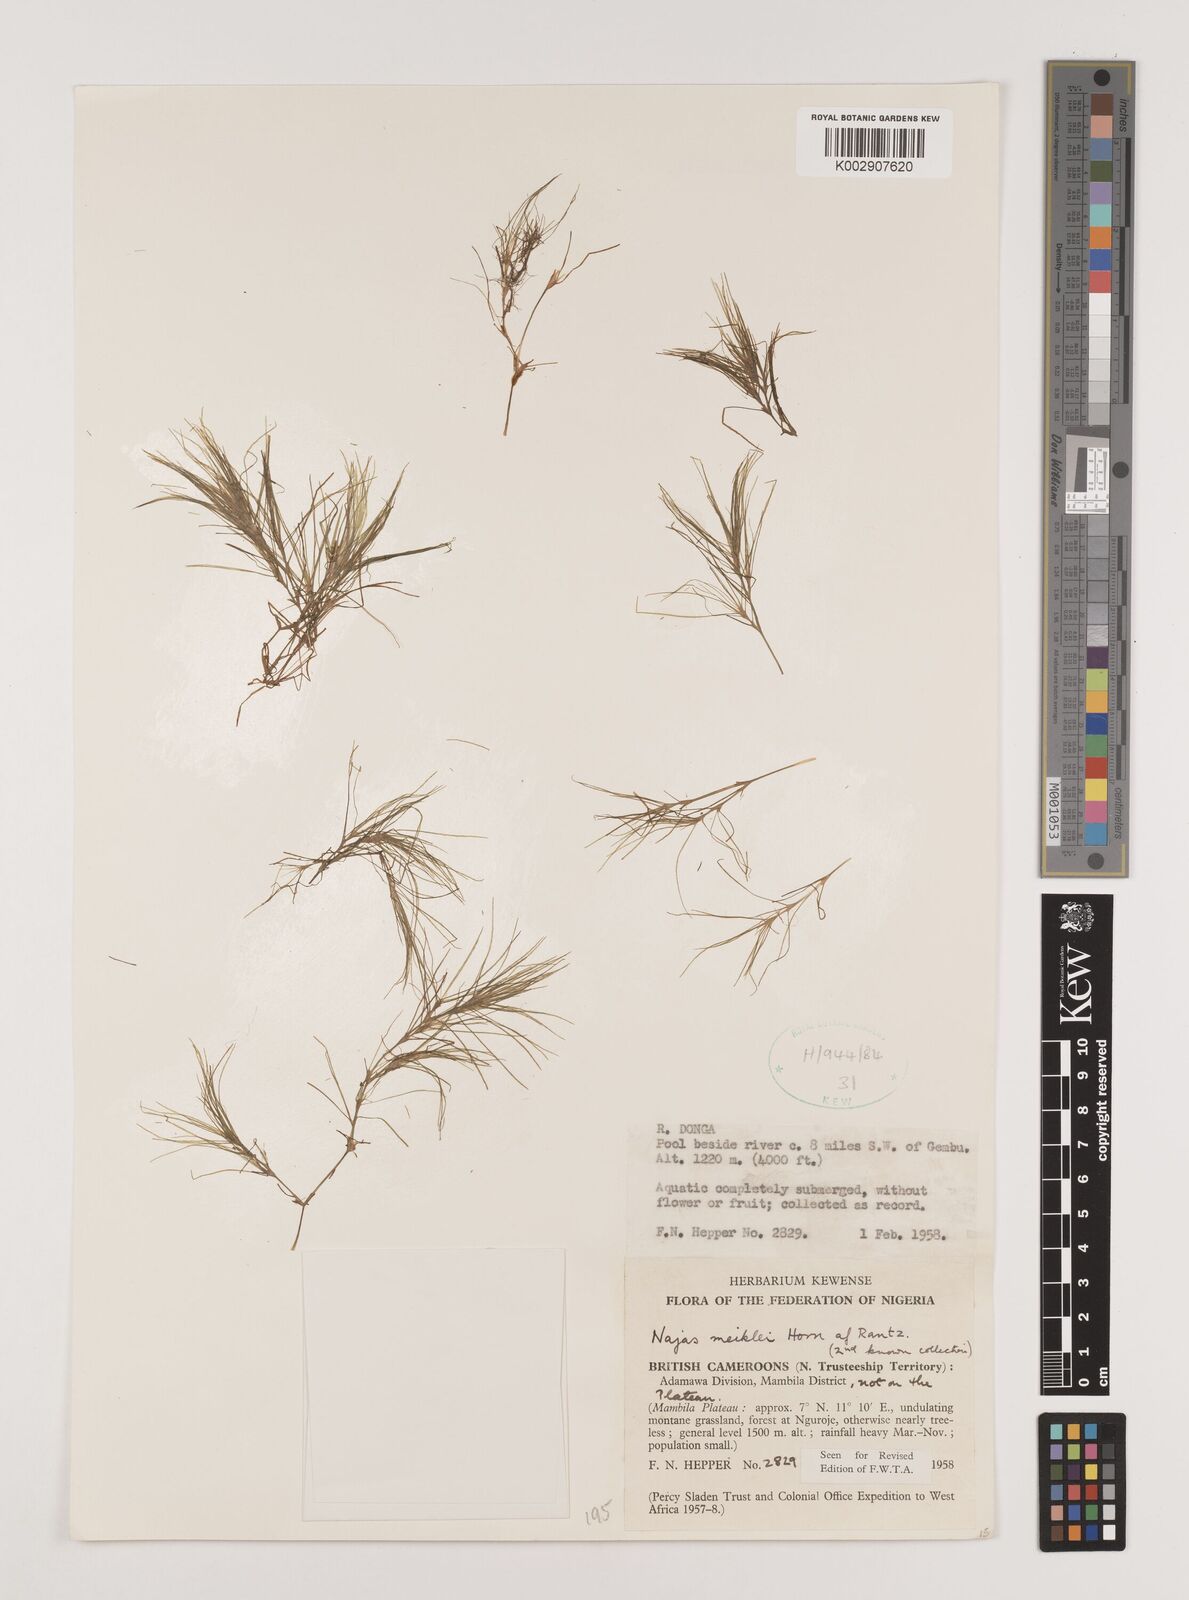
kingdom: Plantae
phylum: Tracheophyta
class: Liliopsida
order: Alismatales
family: Hydrocharitaceae
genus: Najas
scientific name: Najas testui
